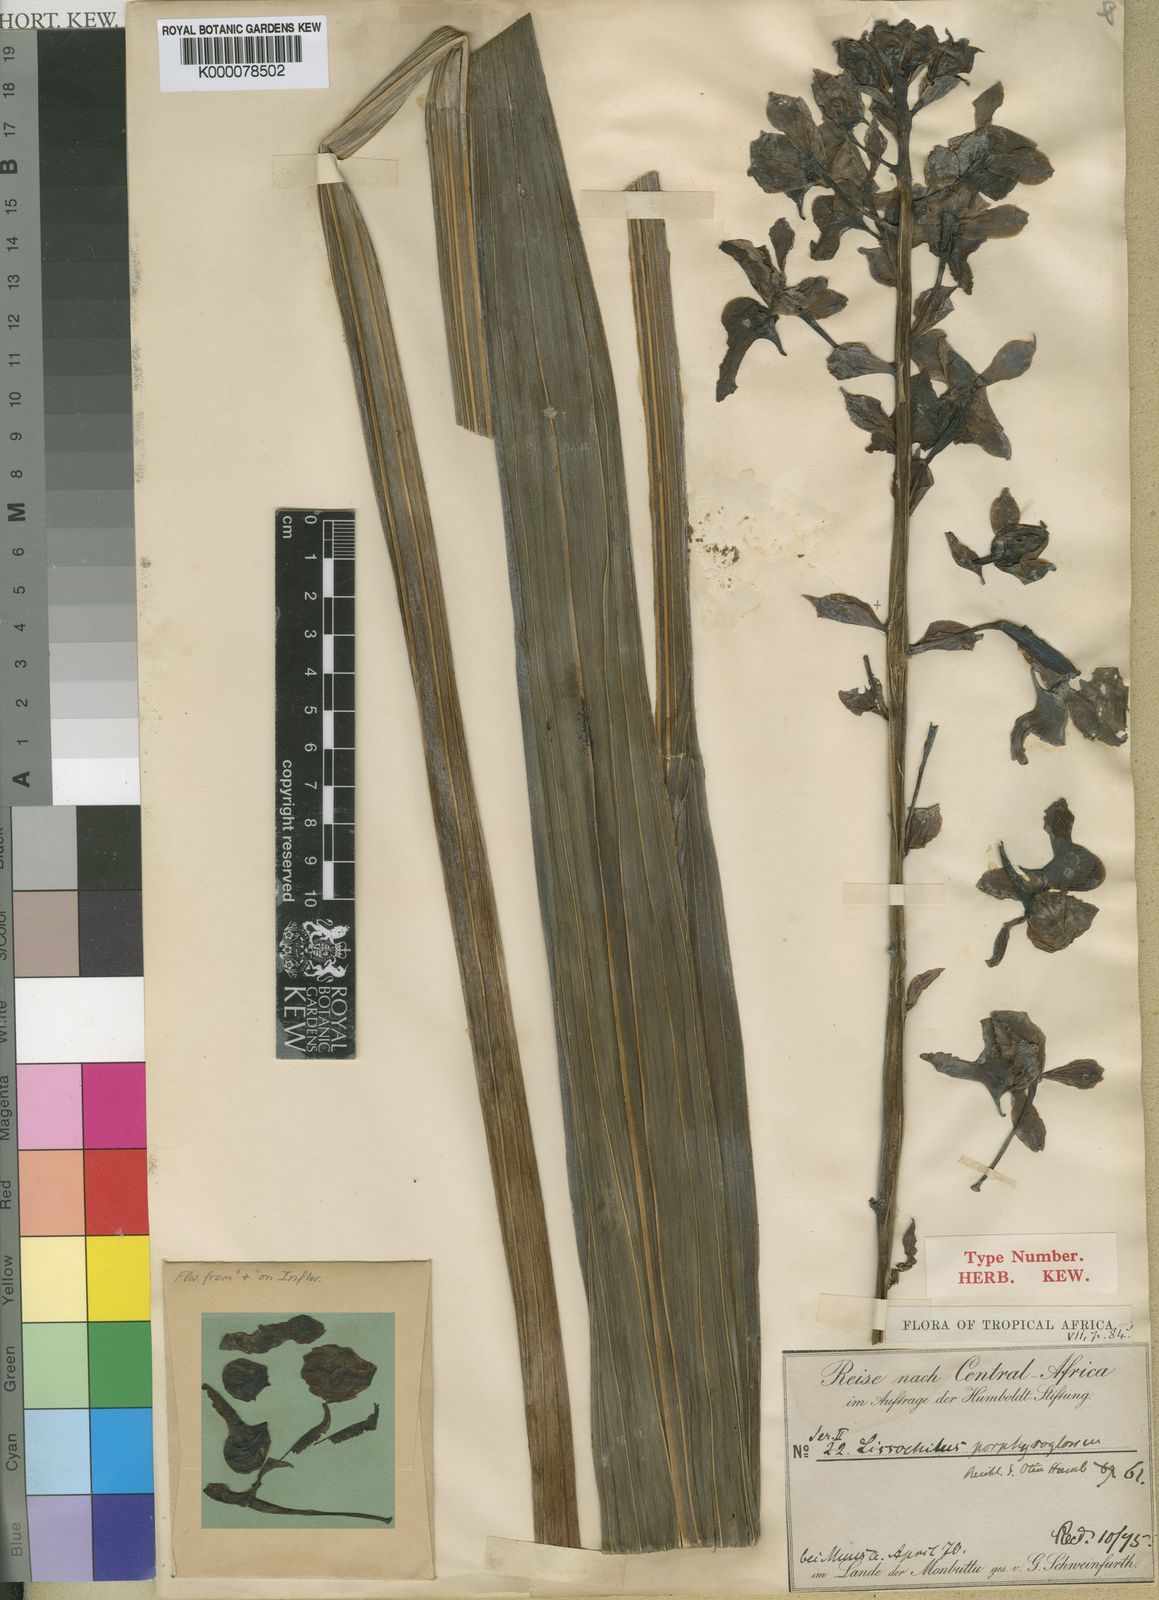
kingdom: Plantae
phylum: Tracheophyta
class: Liliopsida
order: Asparagales
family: Orchidaceae
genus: Eulophia
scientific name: Eulophia horsfallii
